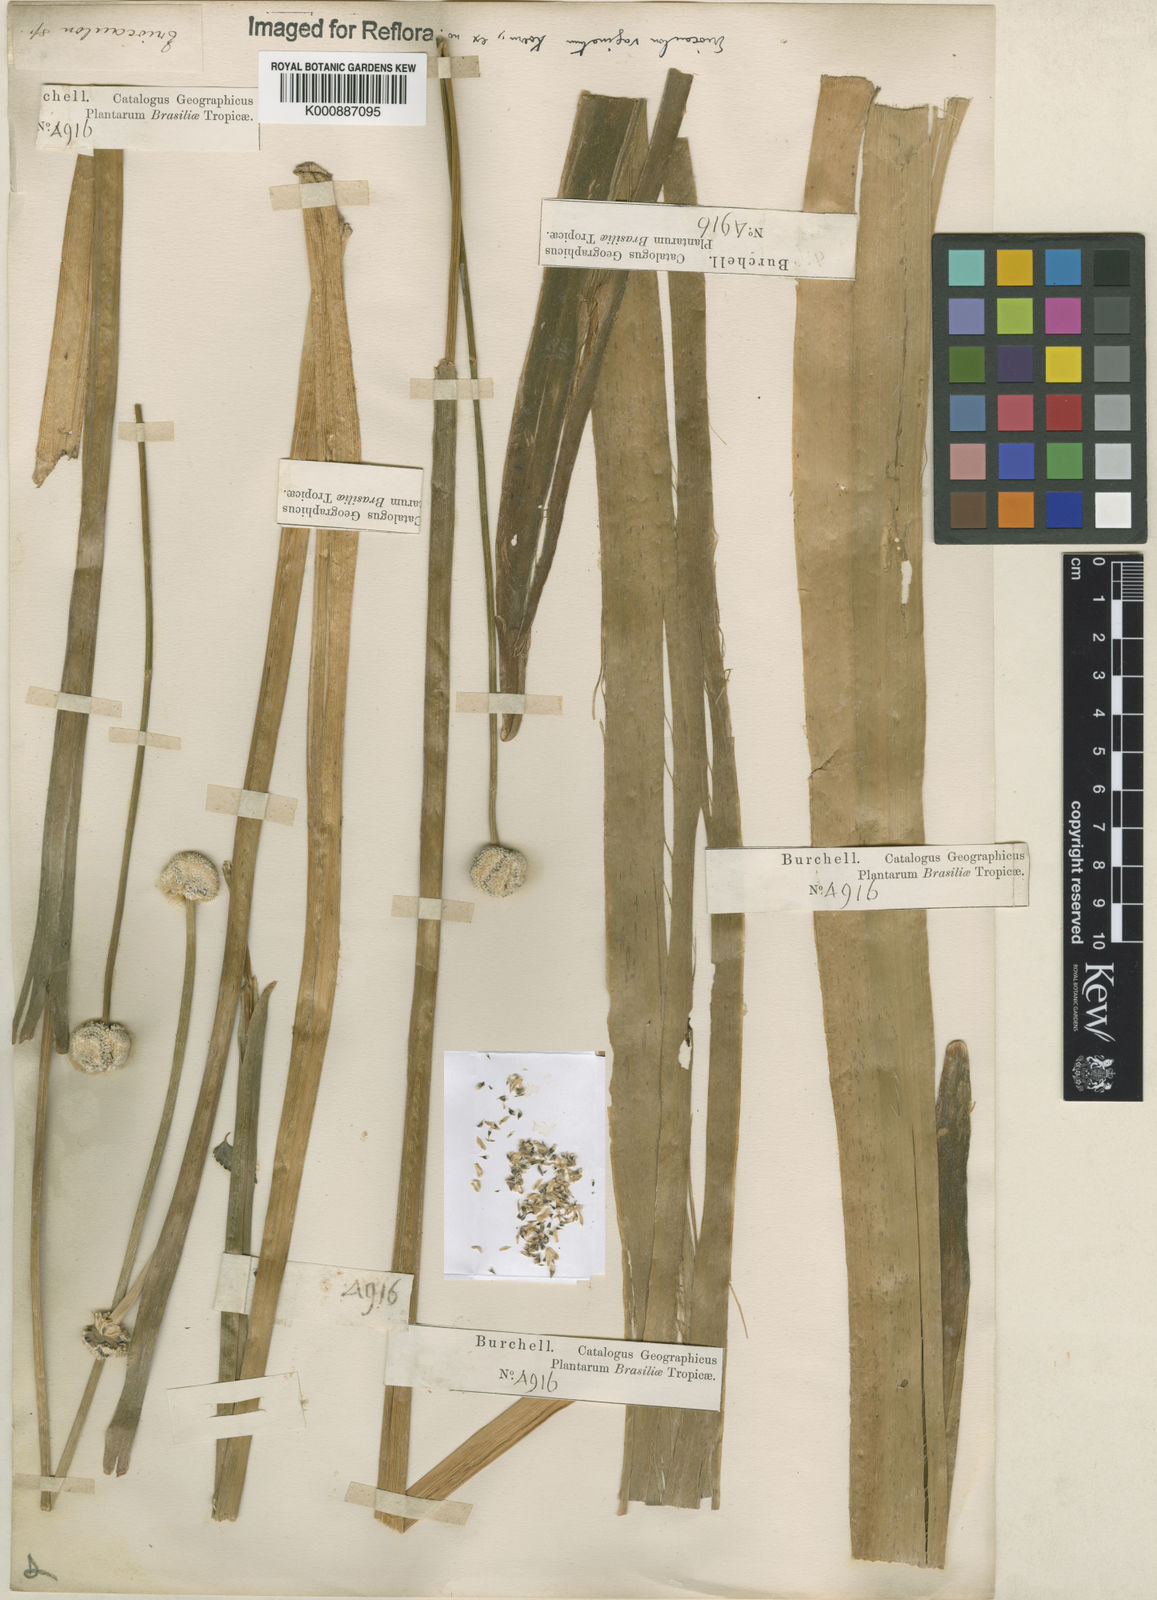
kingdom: Plantae
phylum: Tracheophyta
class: Liliopsida
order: Poales
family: Eriocaulaceae
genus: Eriocaulon
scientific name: Eriocaulon ligulatum
